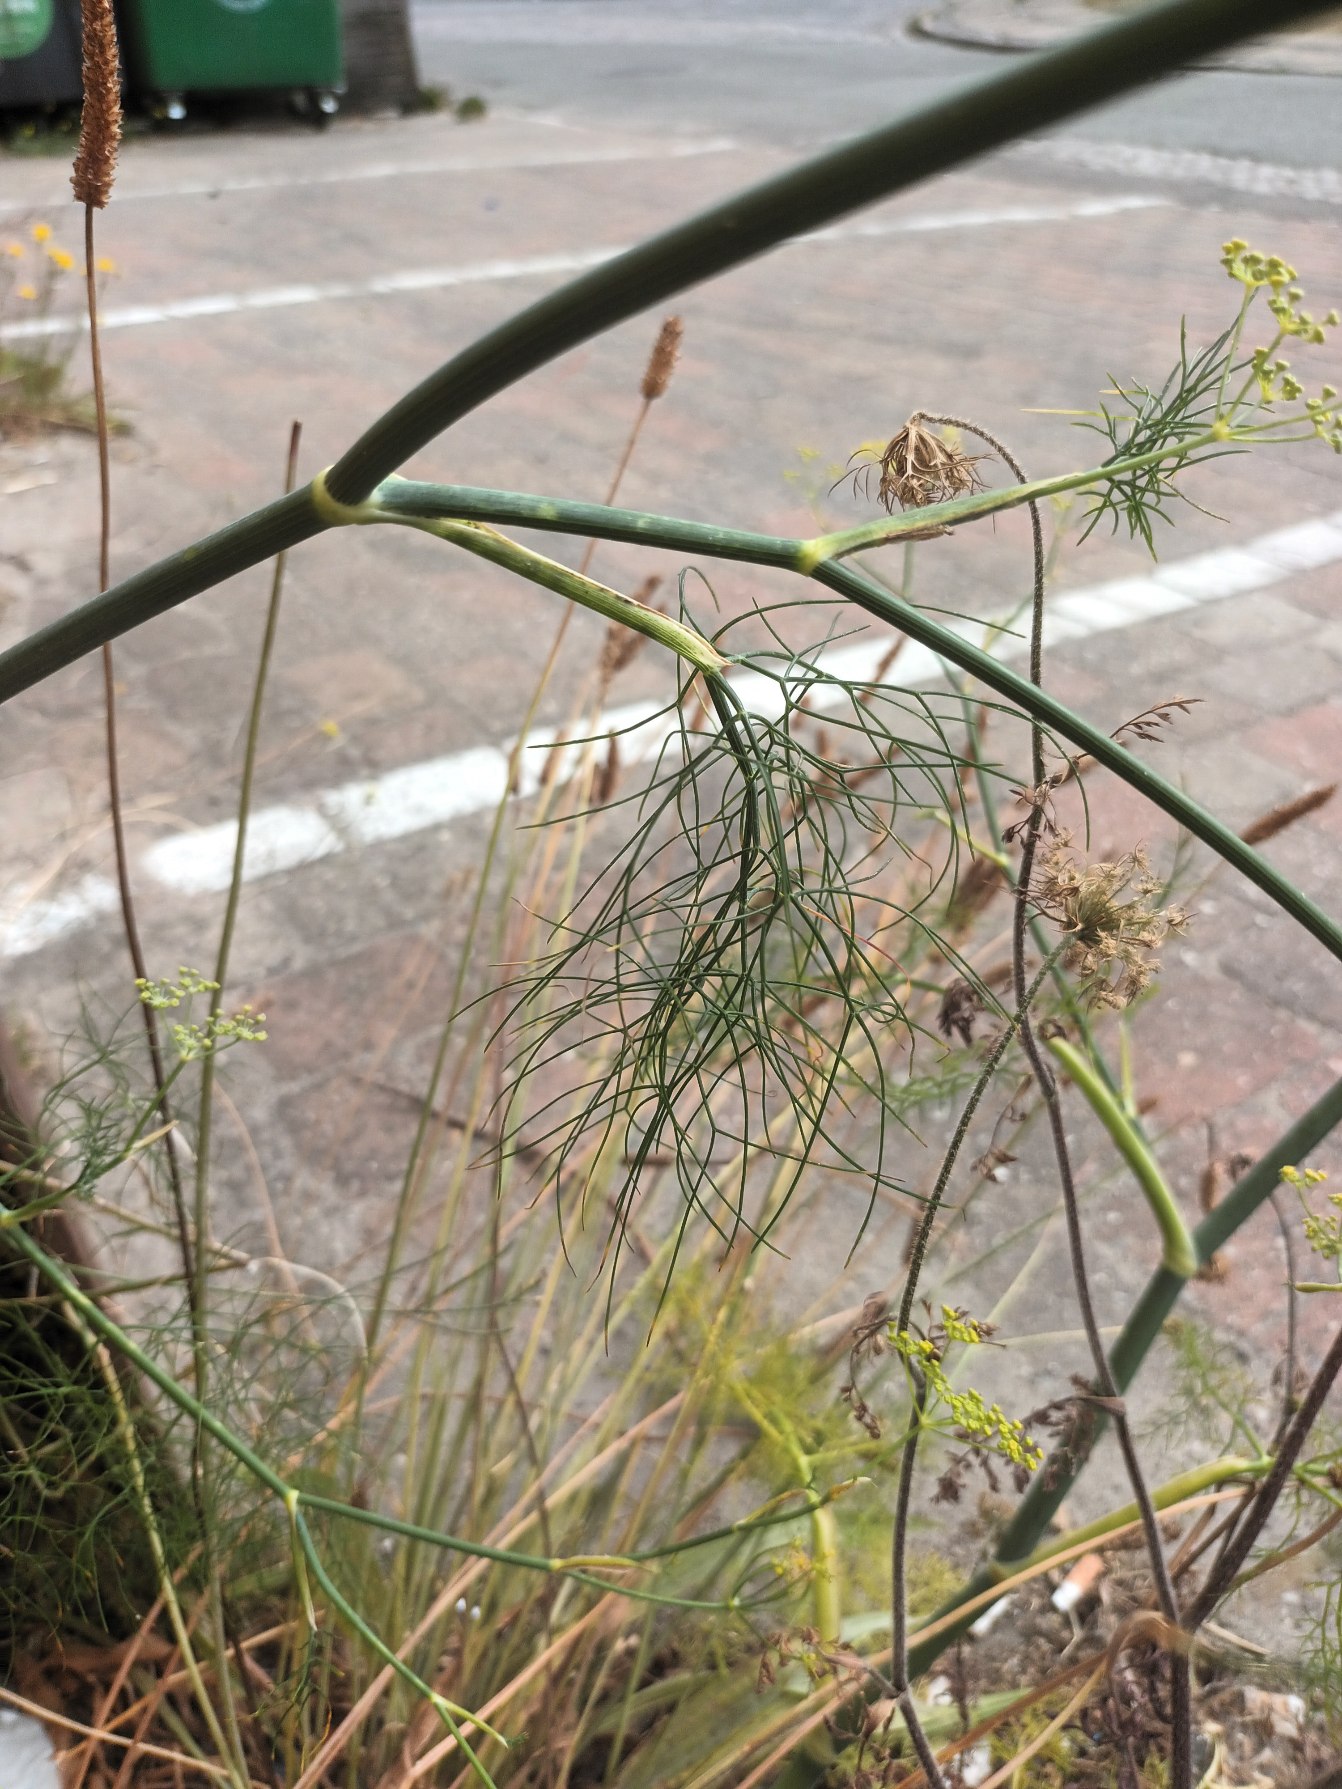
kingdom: Plantae
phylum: Tracheophyta
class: Magnoliopsida
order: Apiales
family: Apiaceae
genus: Anethum
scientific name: Anethum graveolens
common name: Dild
